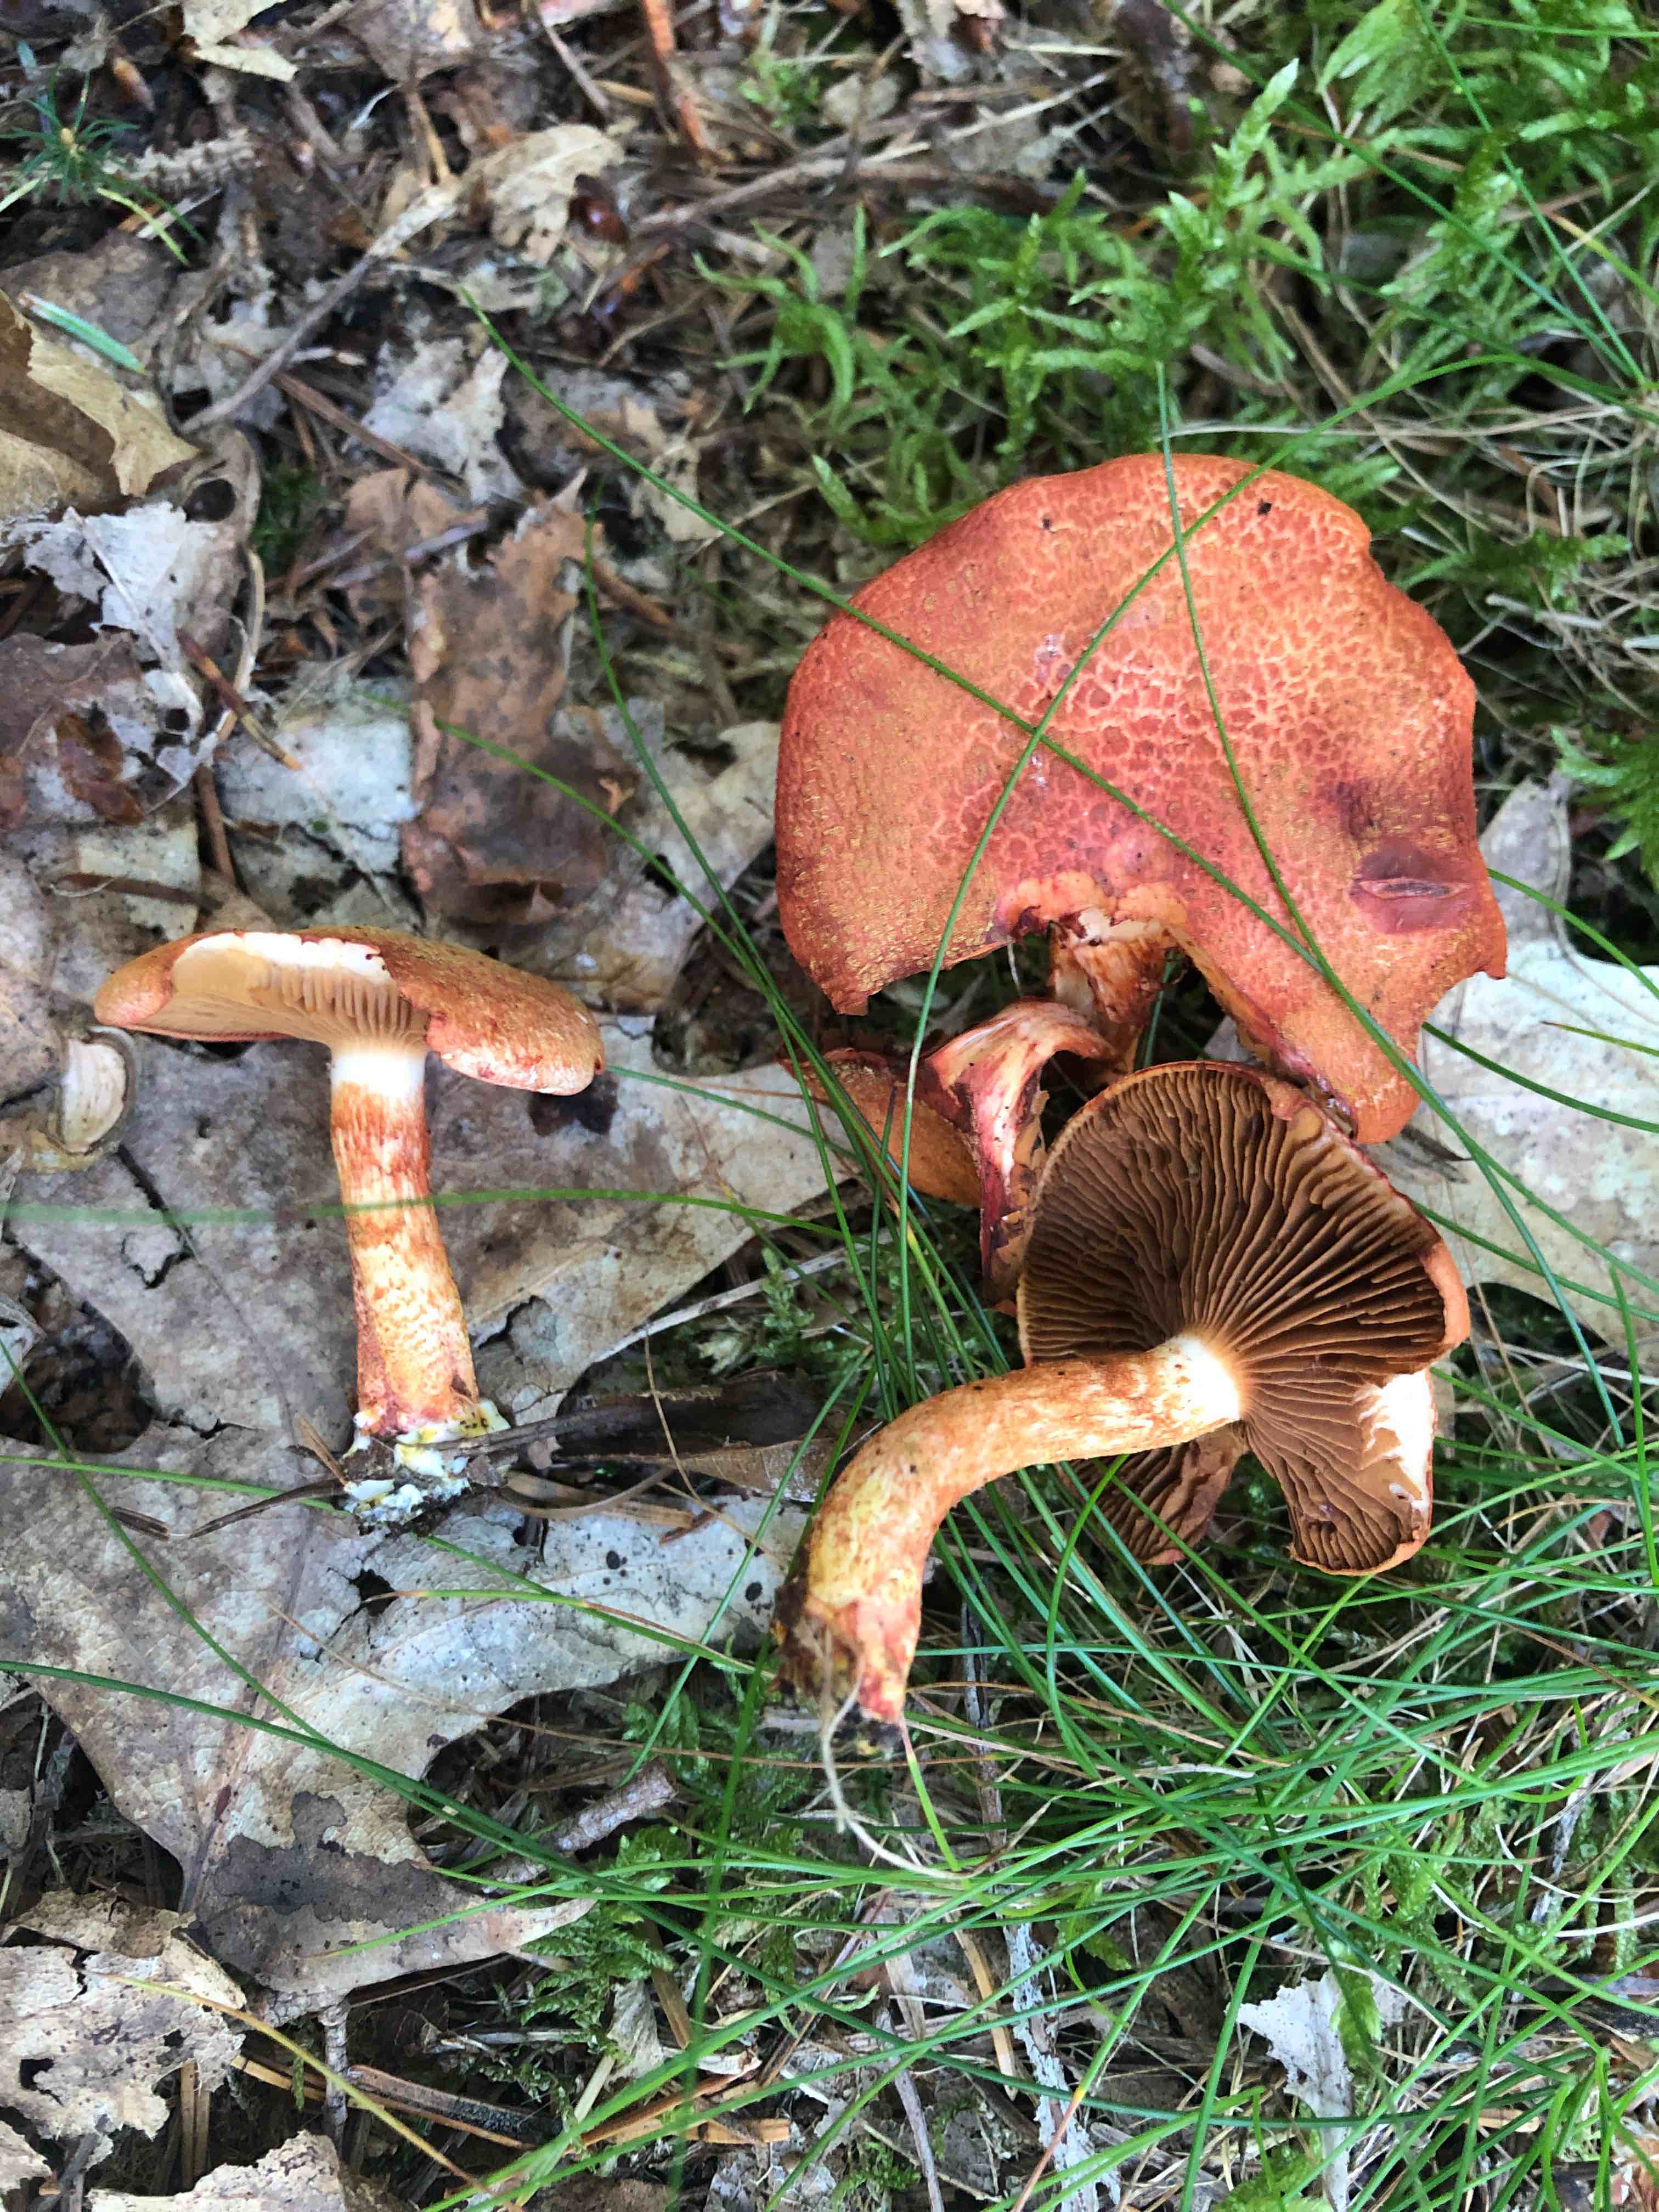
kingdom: Fungi
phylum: Basidiomycota
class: Agaricomycetes
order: Agaricales
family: Cortinariaceae
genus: Cortinarius
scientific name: Cortinarius bolaris
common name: cinnoberskællet slørhat
